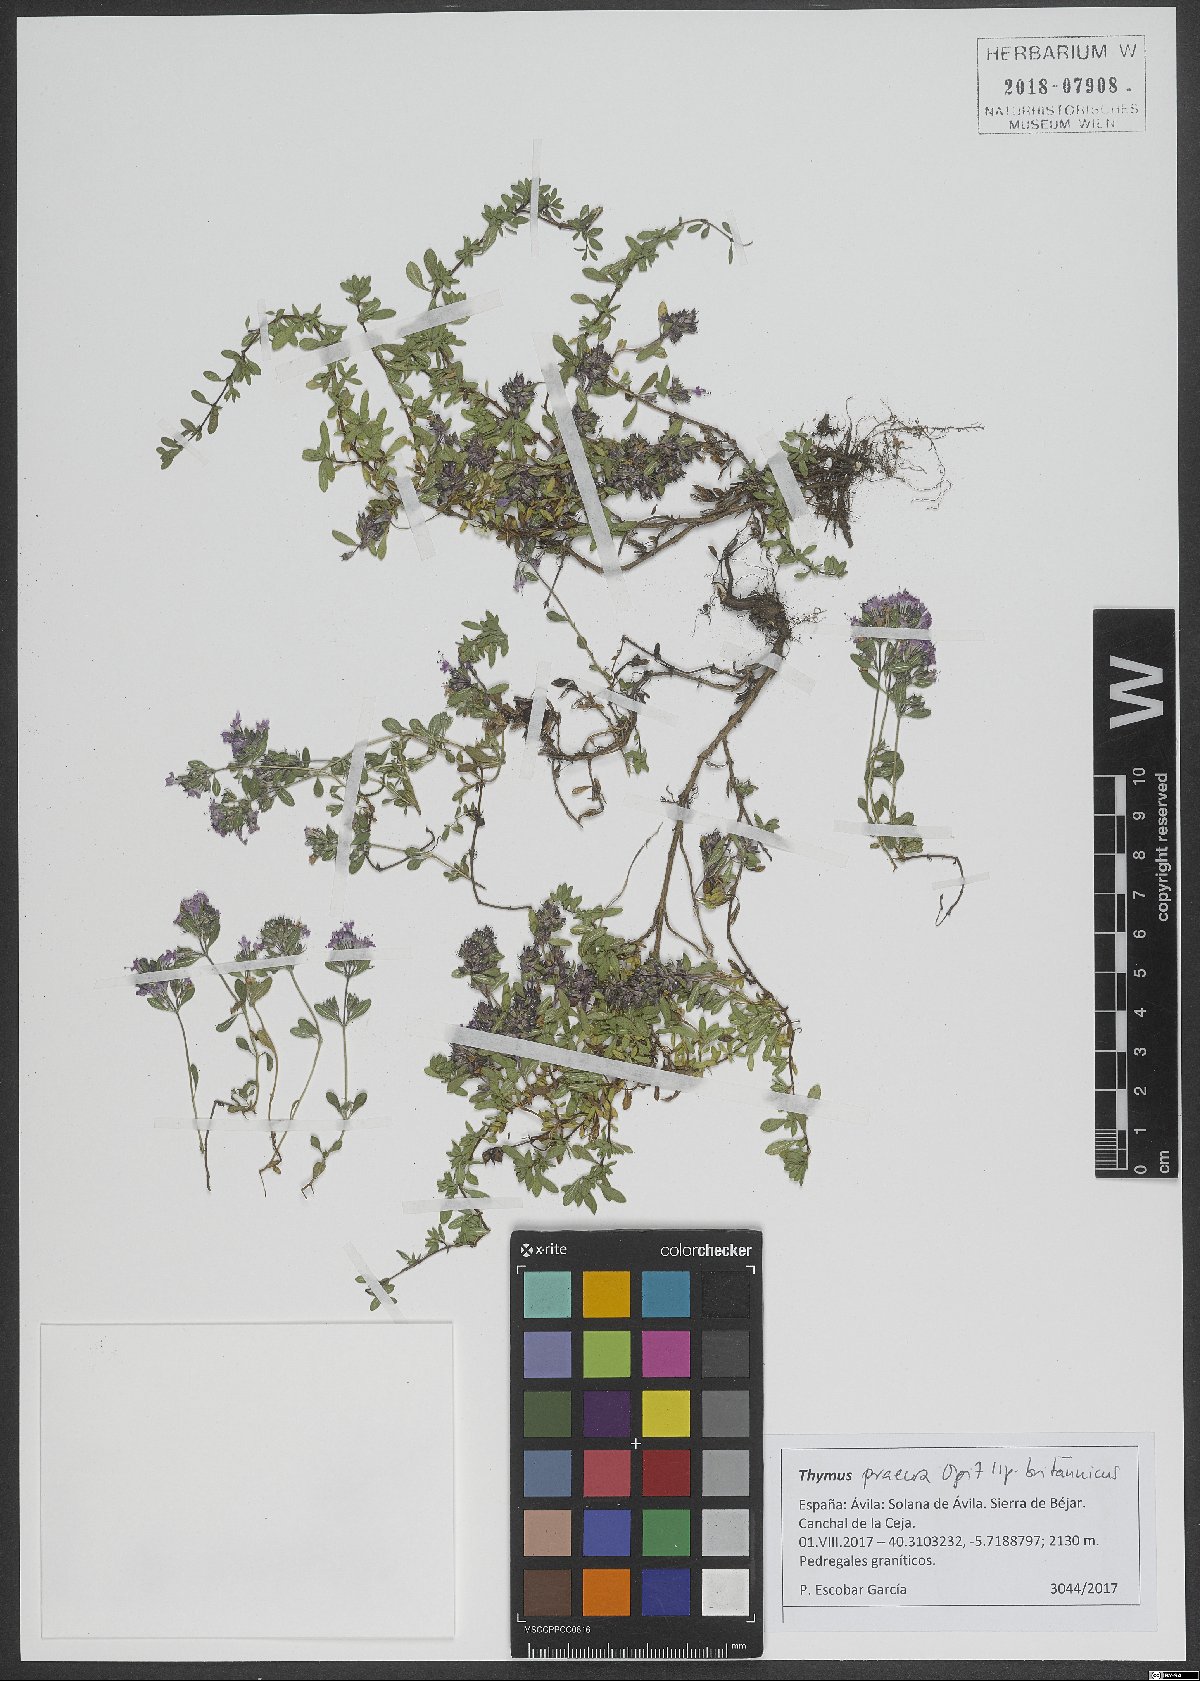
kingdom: Plantae
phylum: Tracheophyta
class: Magnoliopsida
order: Lamiales
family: Lamiaceae
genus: Thymus
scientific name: Thymus praecox
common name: Wild thyme
